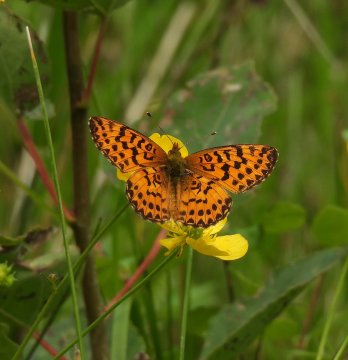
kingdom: Animalia
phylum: Arthropoda
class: Insecta
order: Lepidoptera
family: Nymphalidae
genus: Boloria
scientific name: Boloria freija
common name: Freija Fritillary
